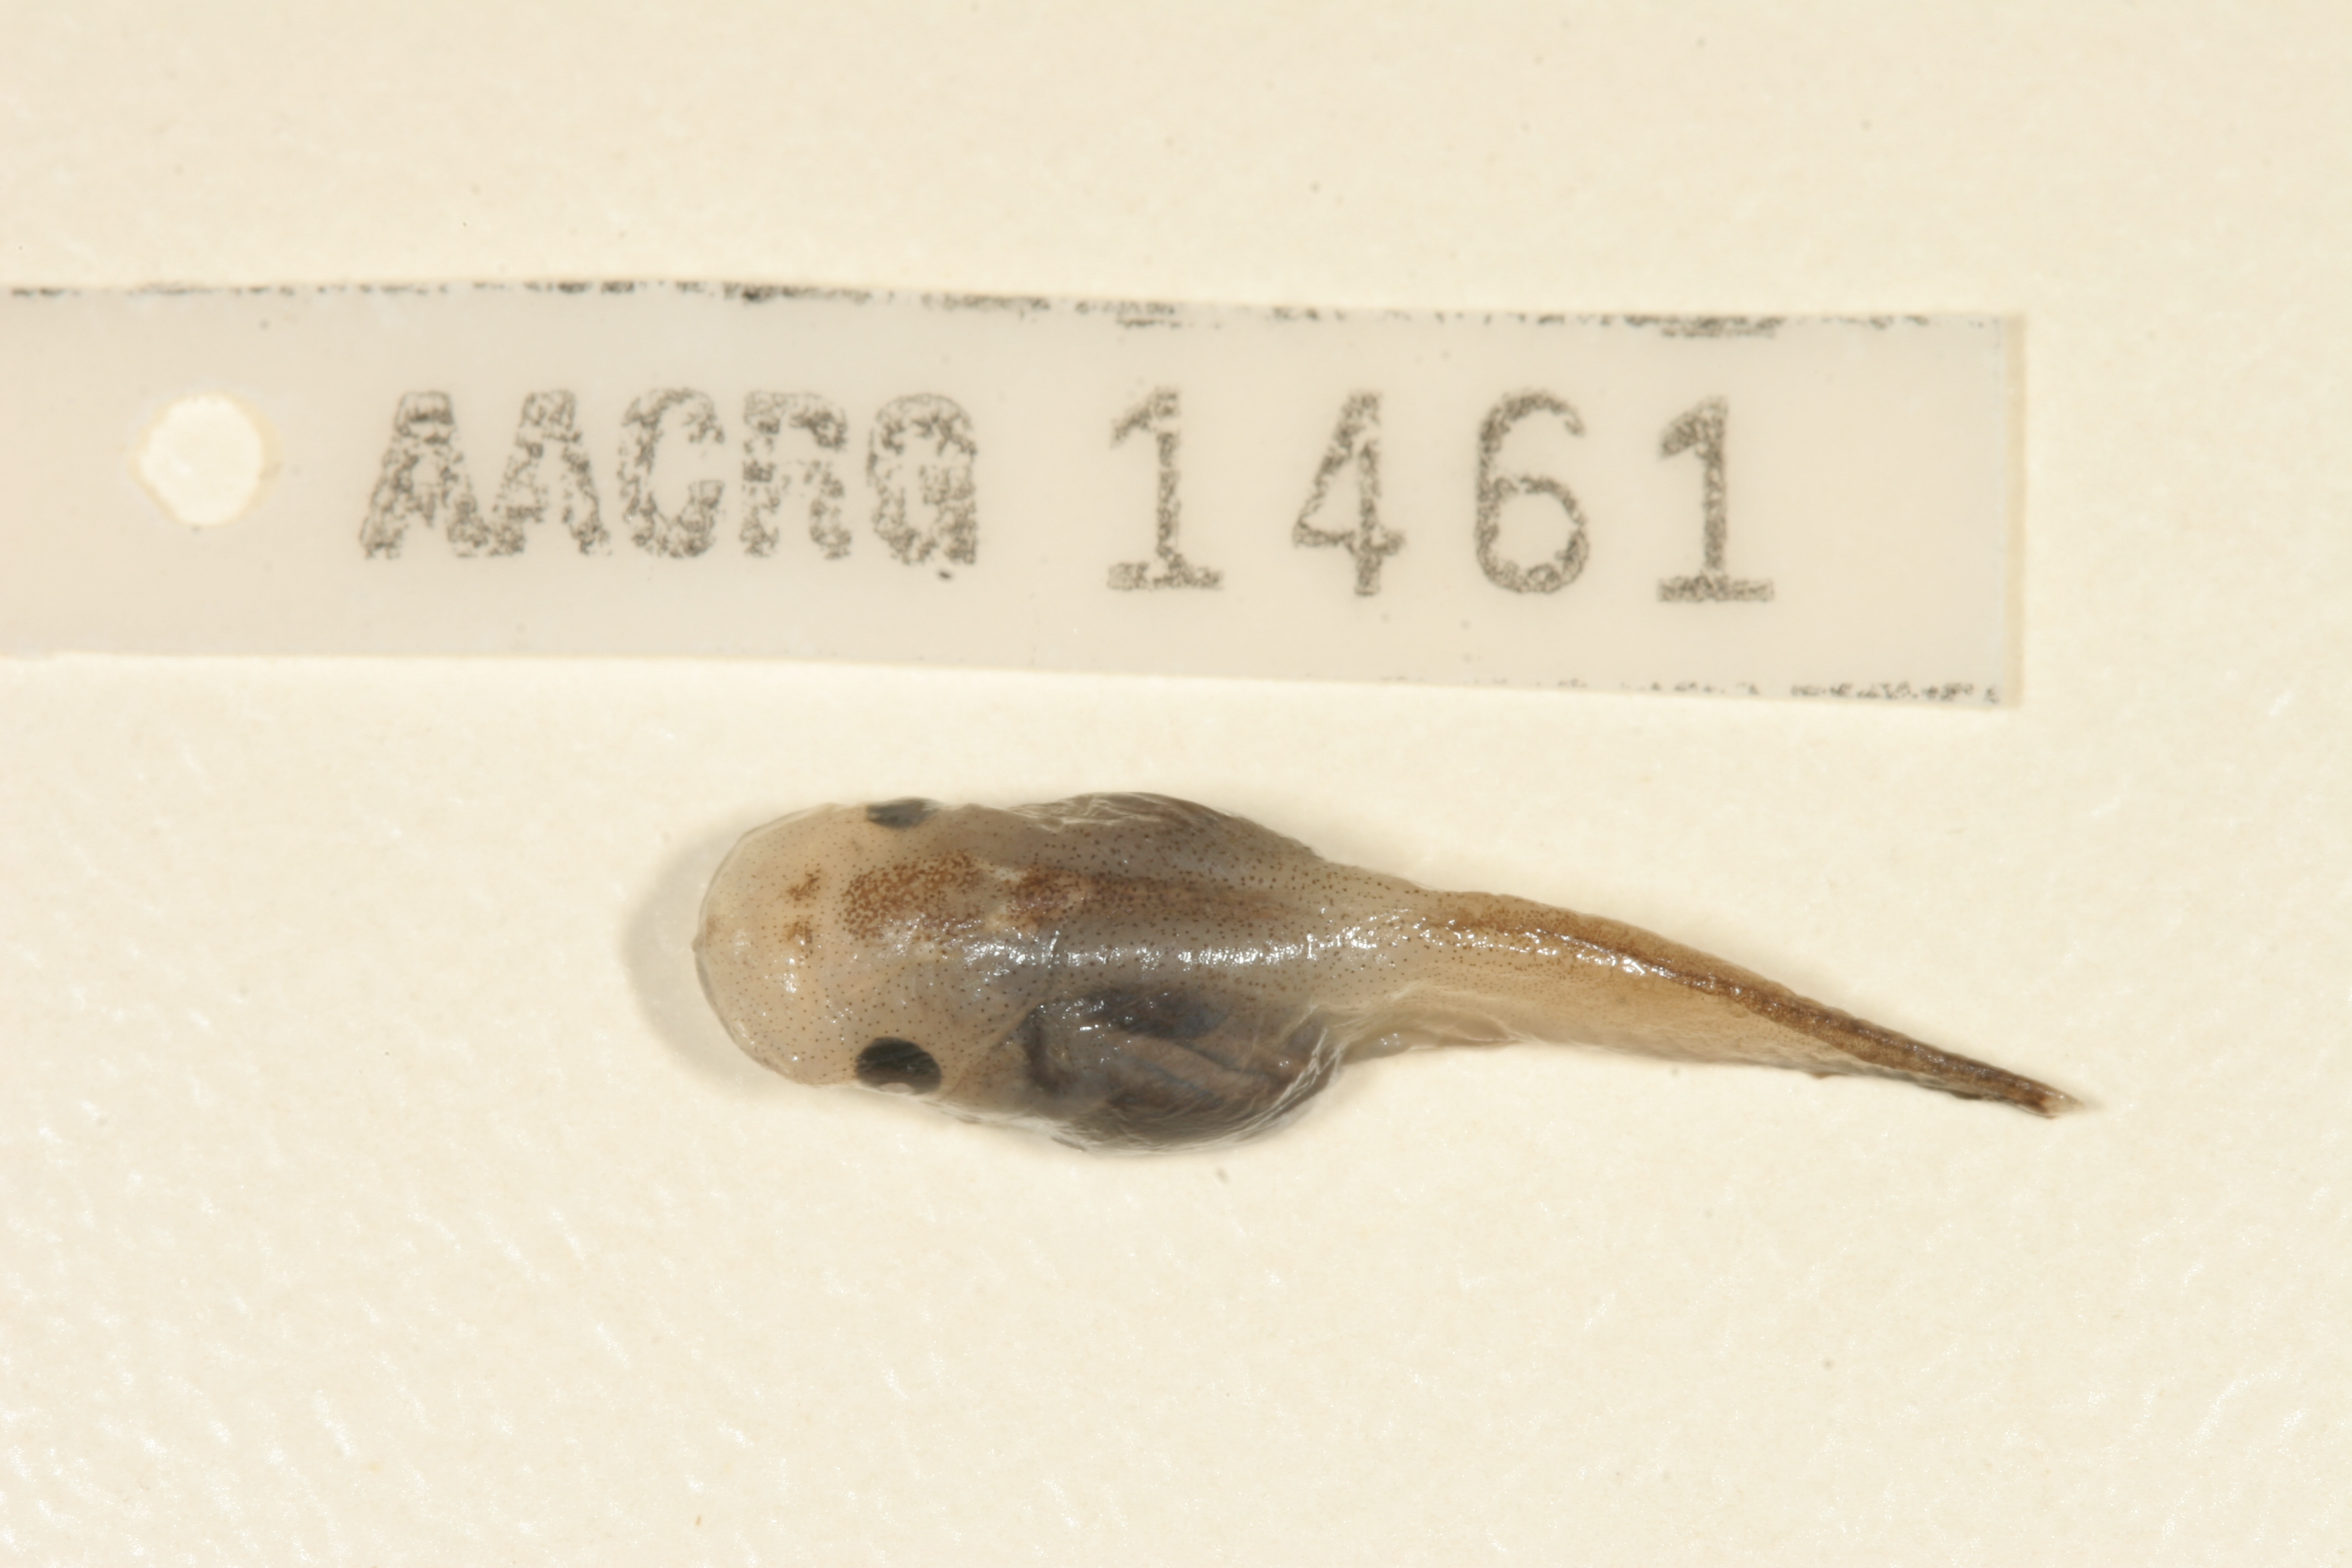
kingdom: Animalia
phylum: Chordata
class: Amphibia
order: Anura
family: Microhylidae
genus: Phrynomantis
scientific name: Phrynomantis bifasciatus
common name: Banded rubber frog
